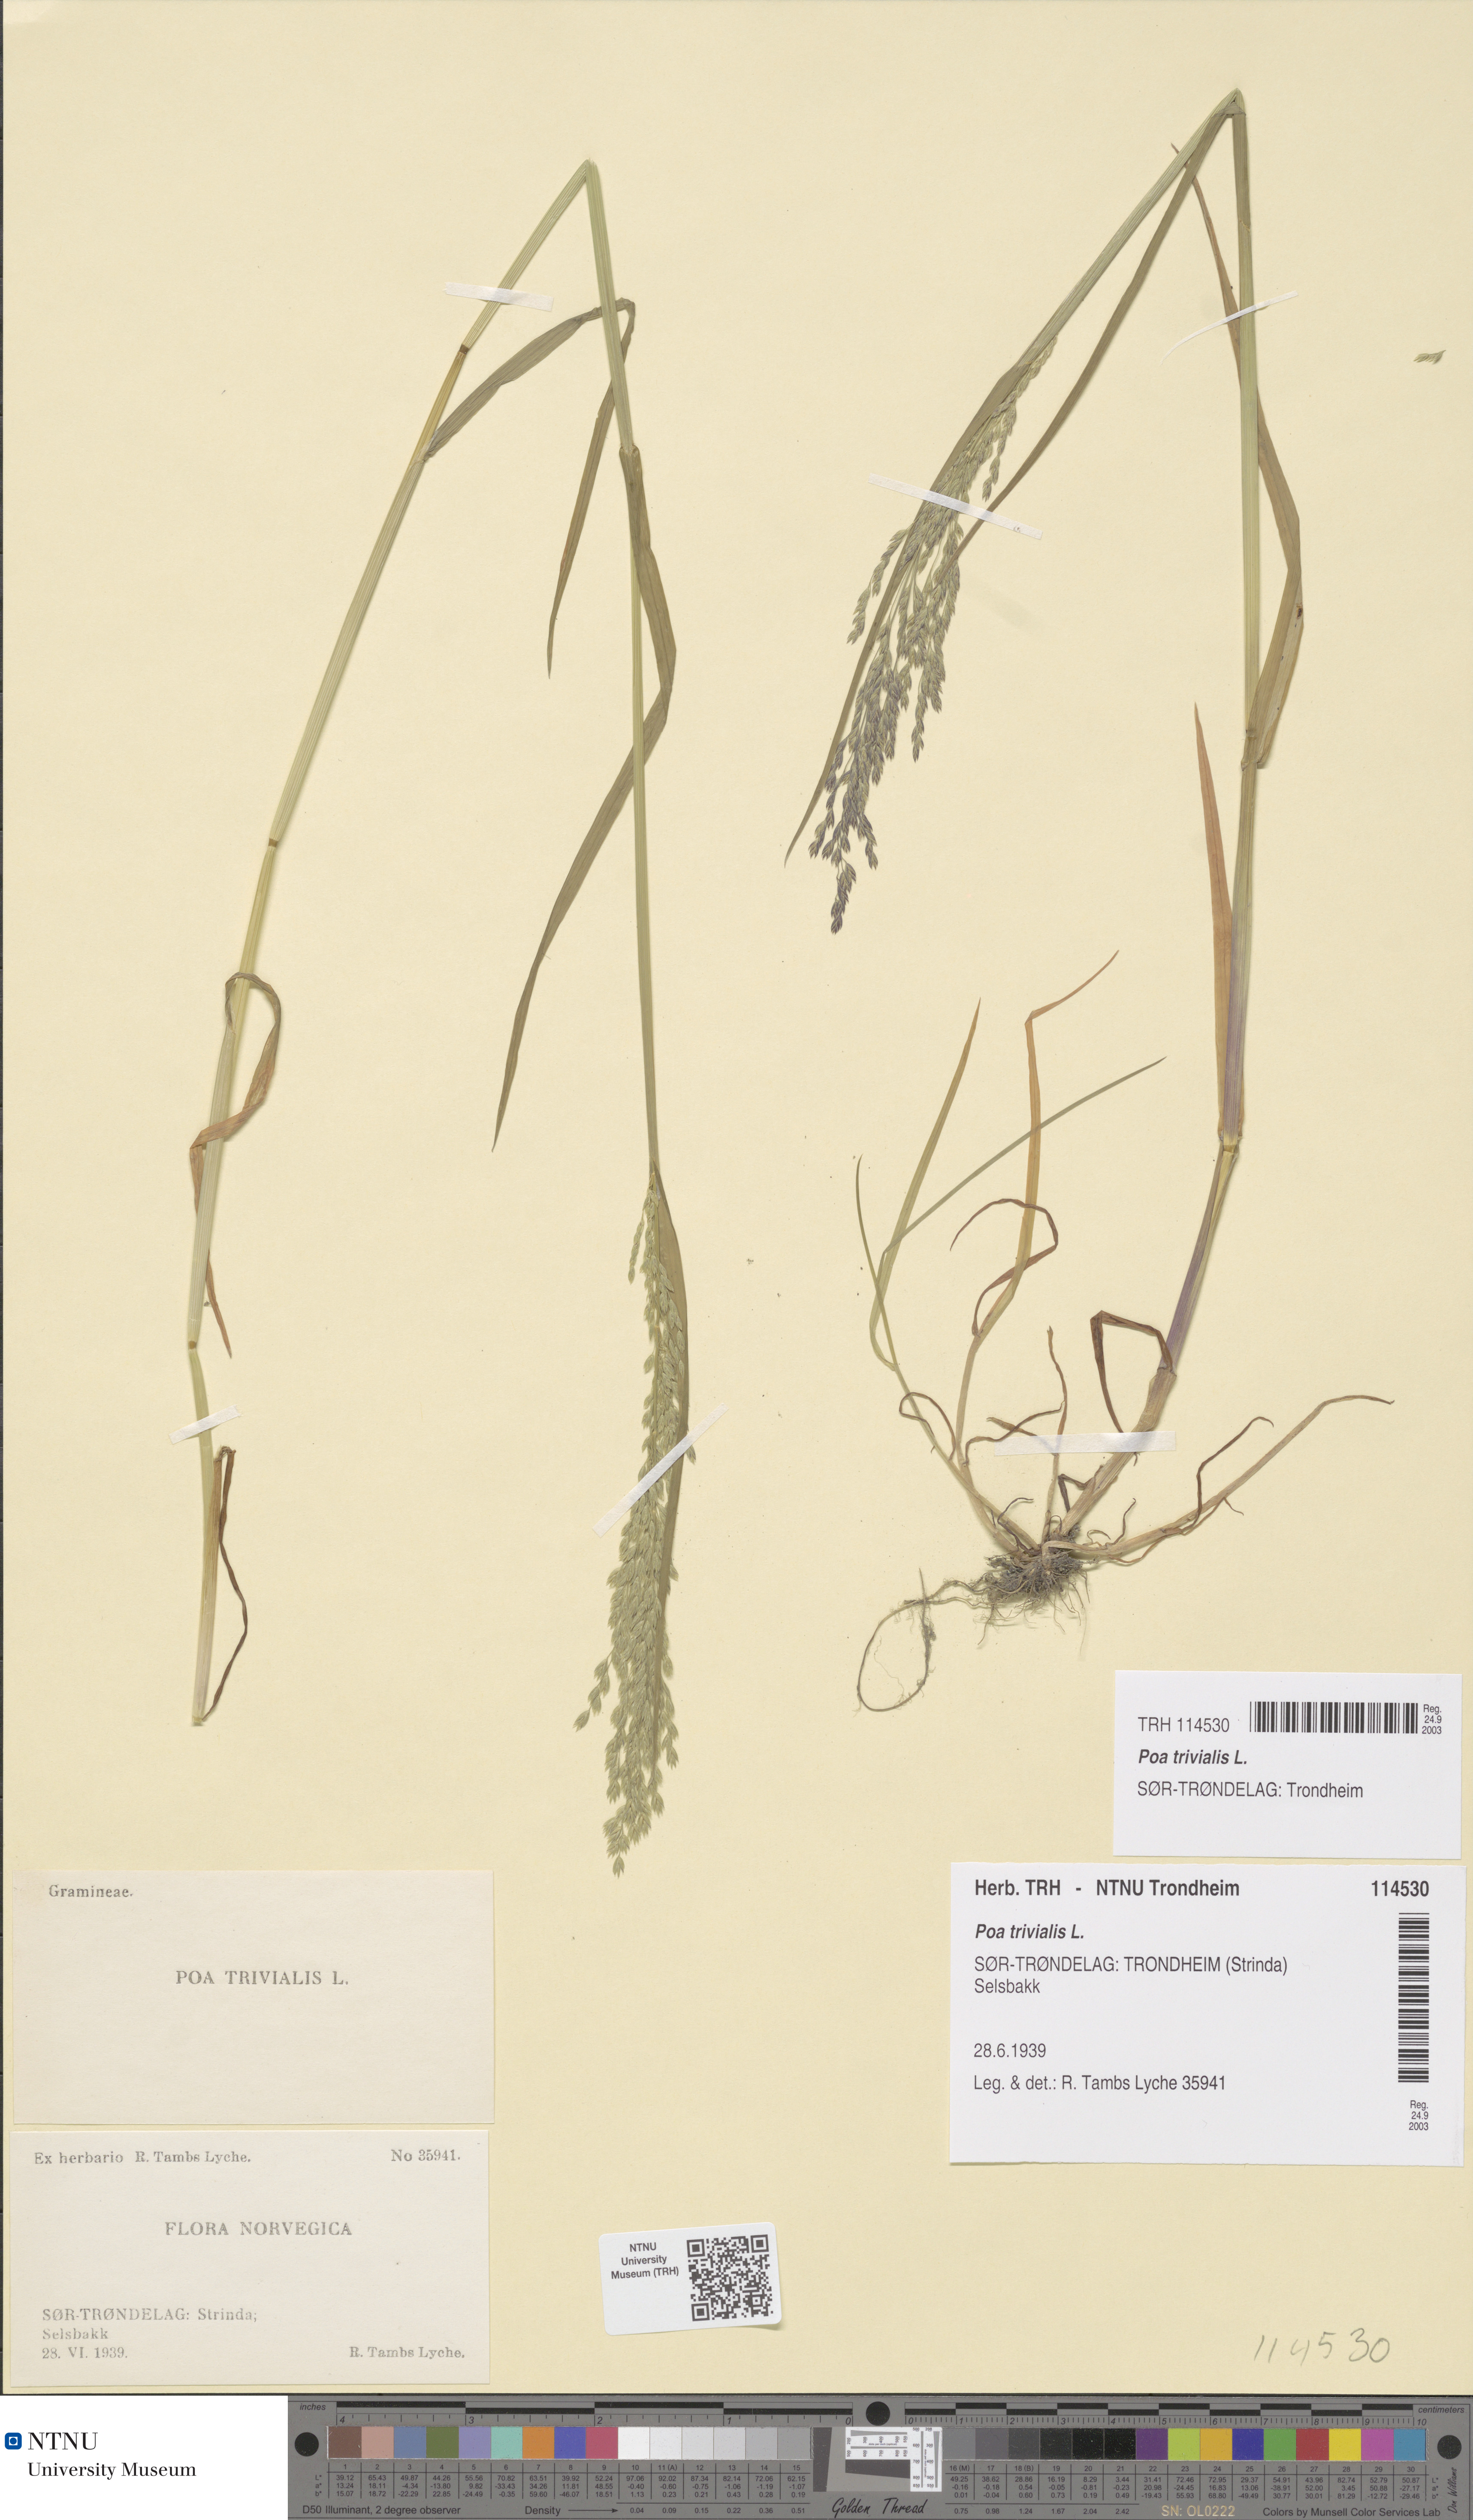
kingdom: Plantae
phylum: Tracheophyta
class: Liliopsida
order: Poales
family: Poaceae
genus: Poa
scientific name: Poa trivialis
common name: Rough bluegrass
